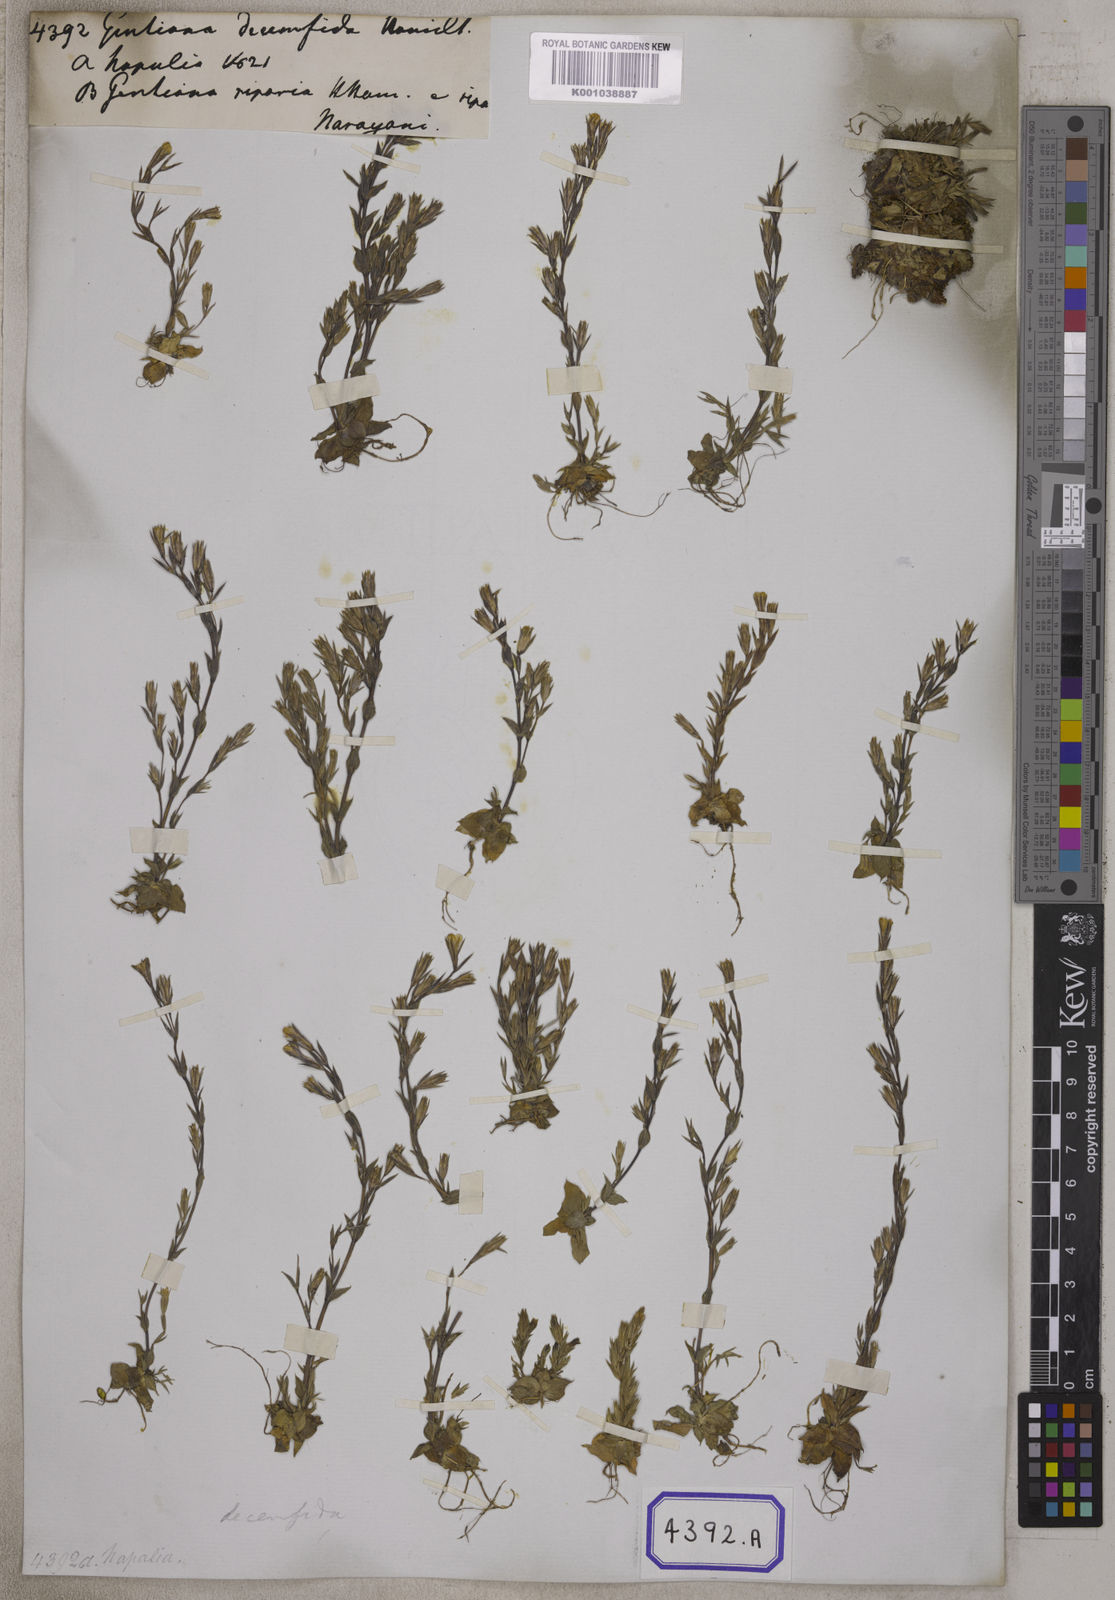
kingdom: Plantae
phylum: Tracheophyta
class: Magnoliopsida
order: Gentianales
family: Gentianaceae
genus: Gentiana
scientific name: Gentiana decemfida
